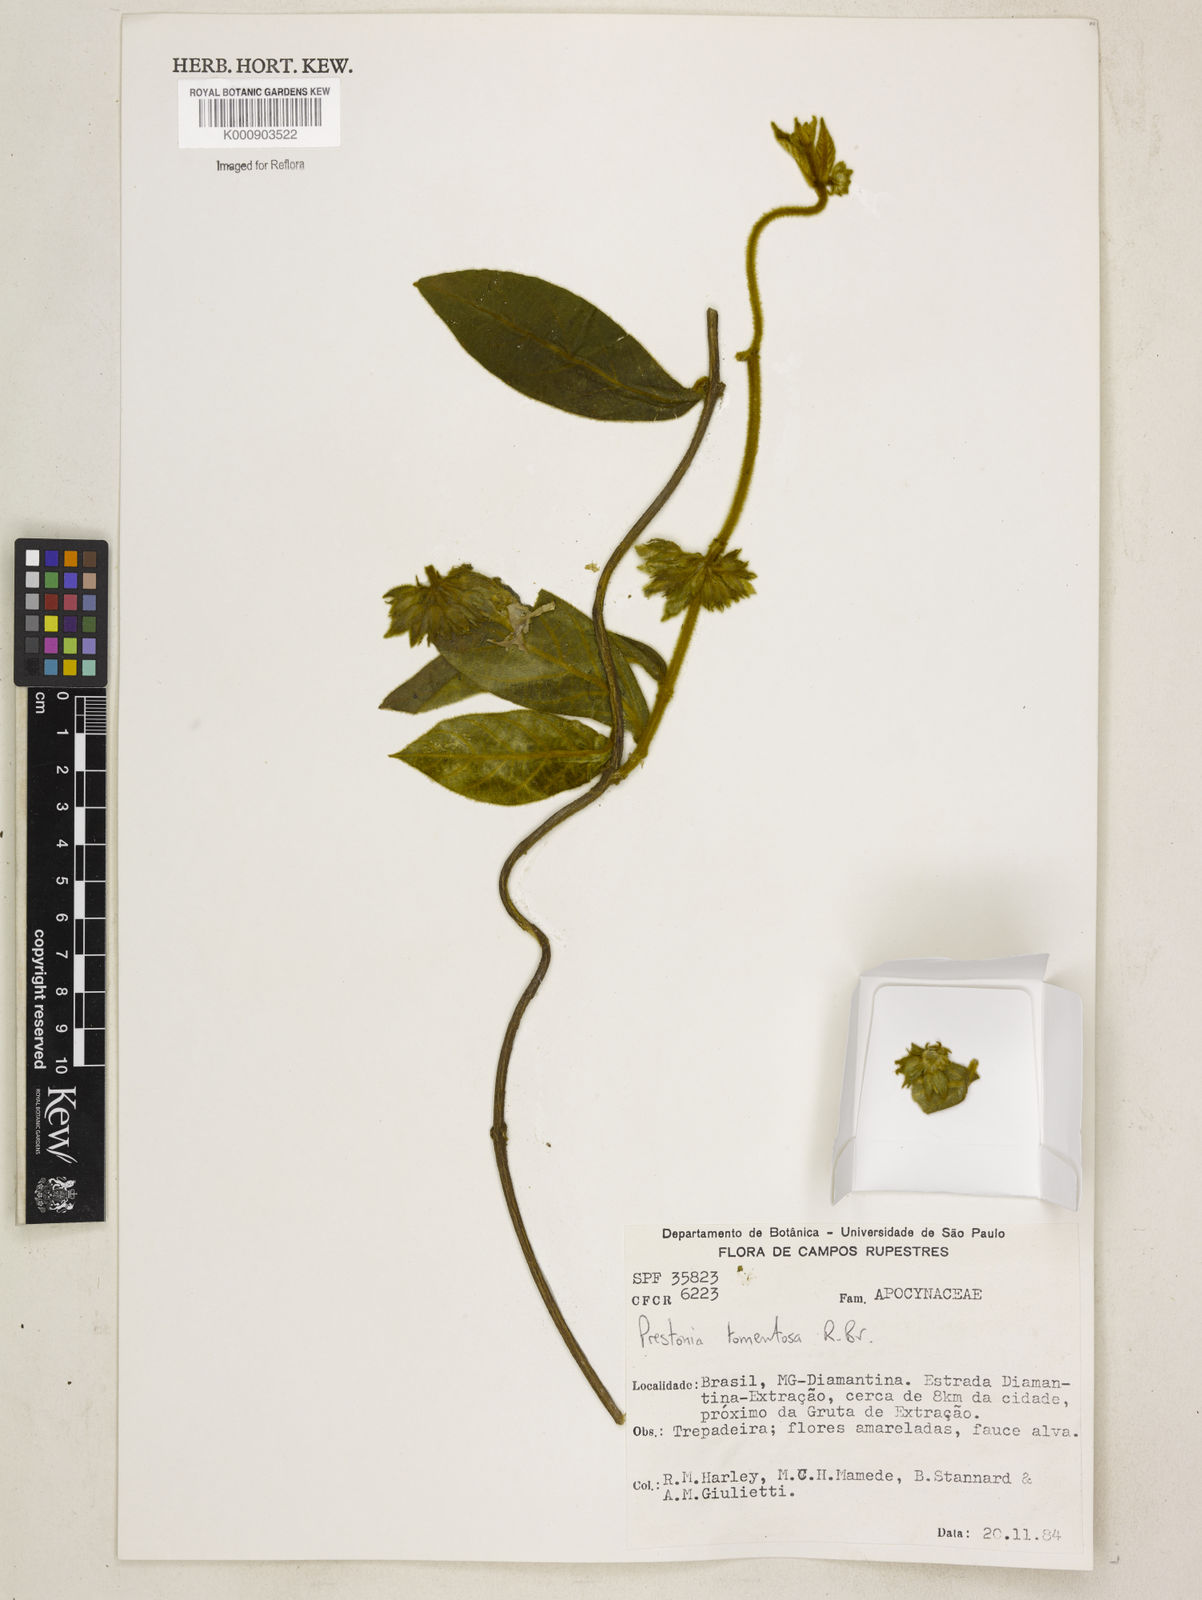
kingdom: Plantae
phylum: Tracheophyta
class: Magnoliopsida
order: Gentianales
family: Apocynaceae
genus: Prestonia
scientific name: Prestonia tomentosa
